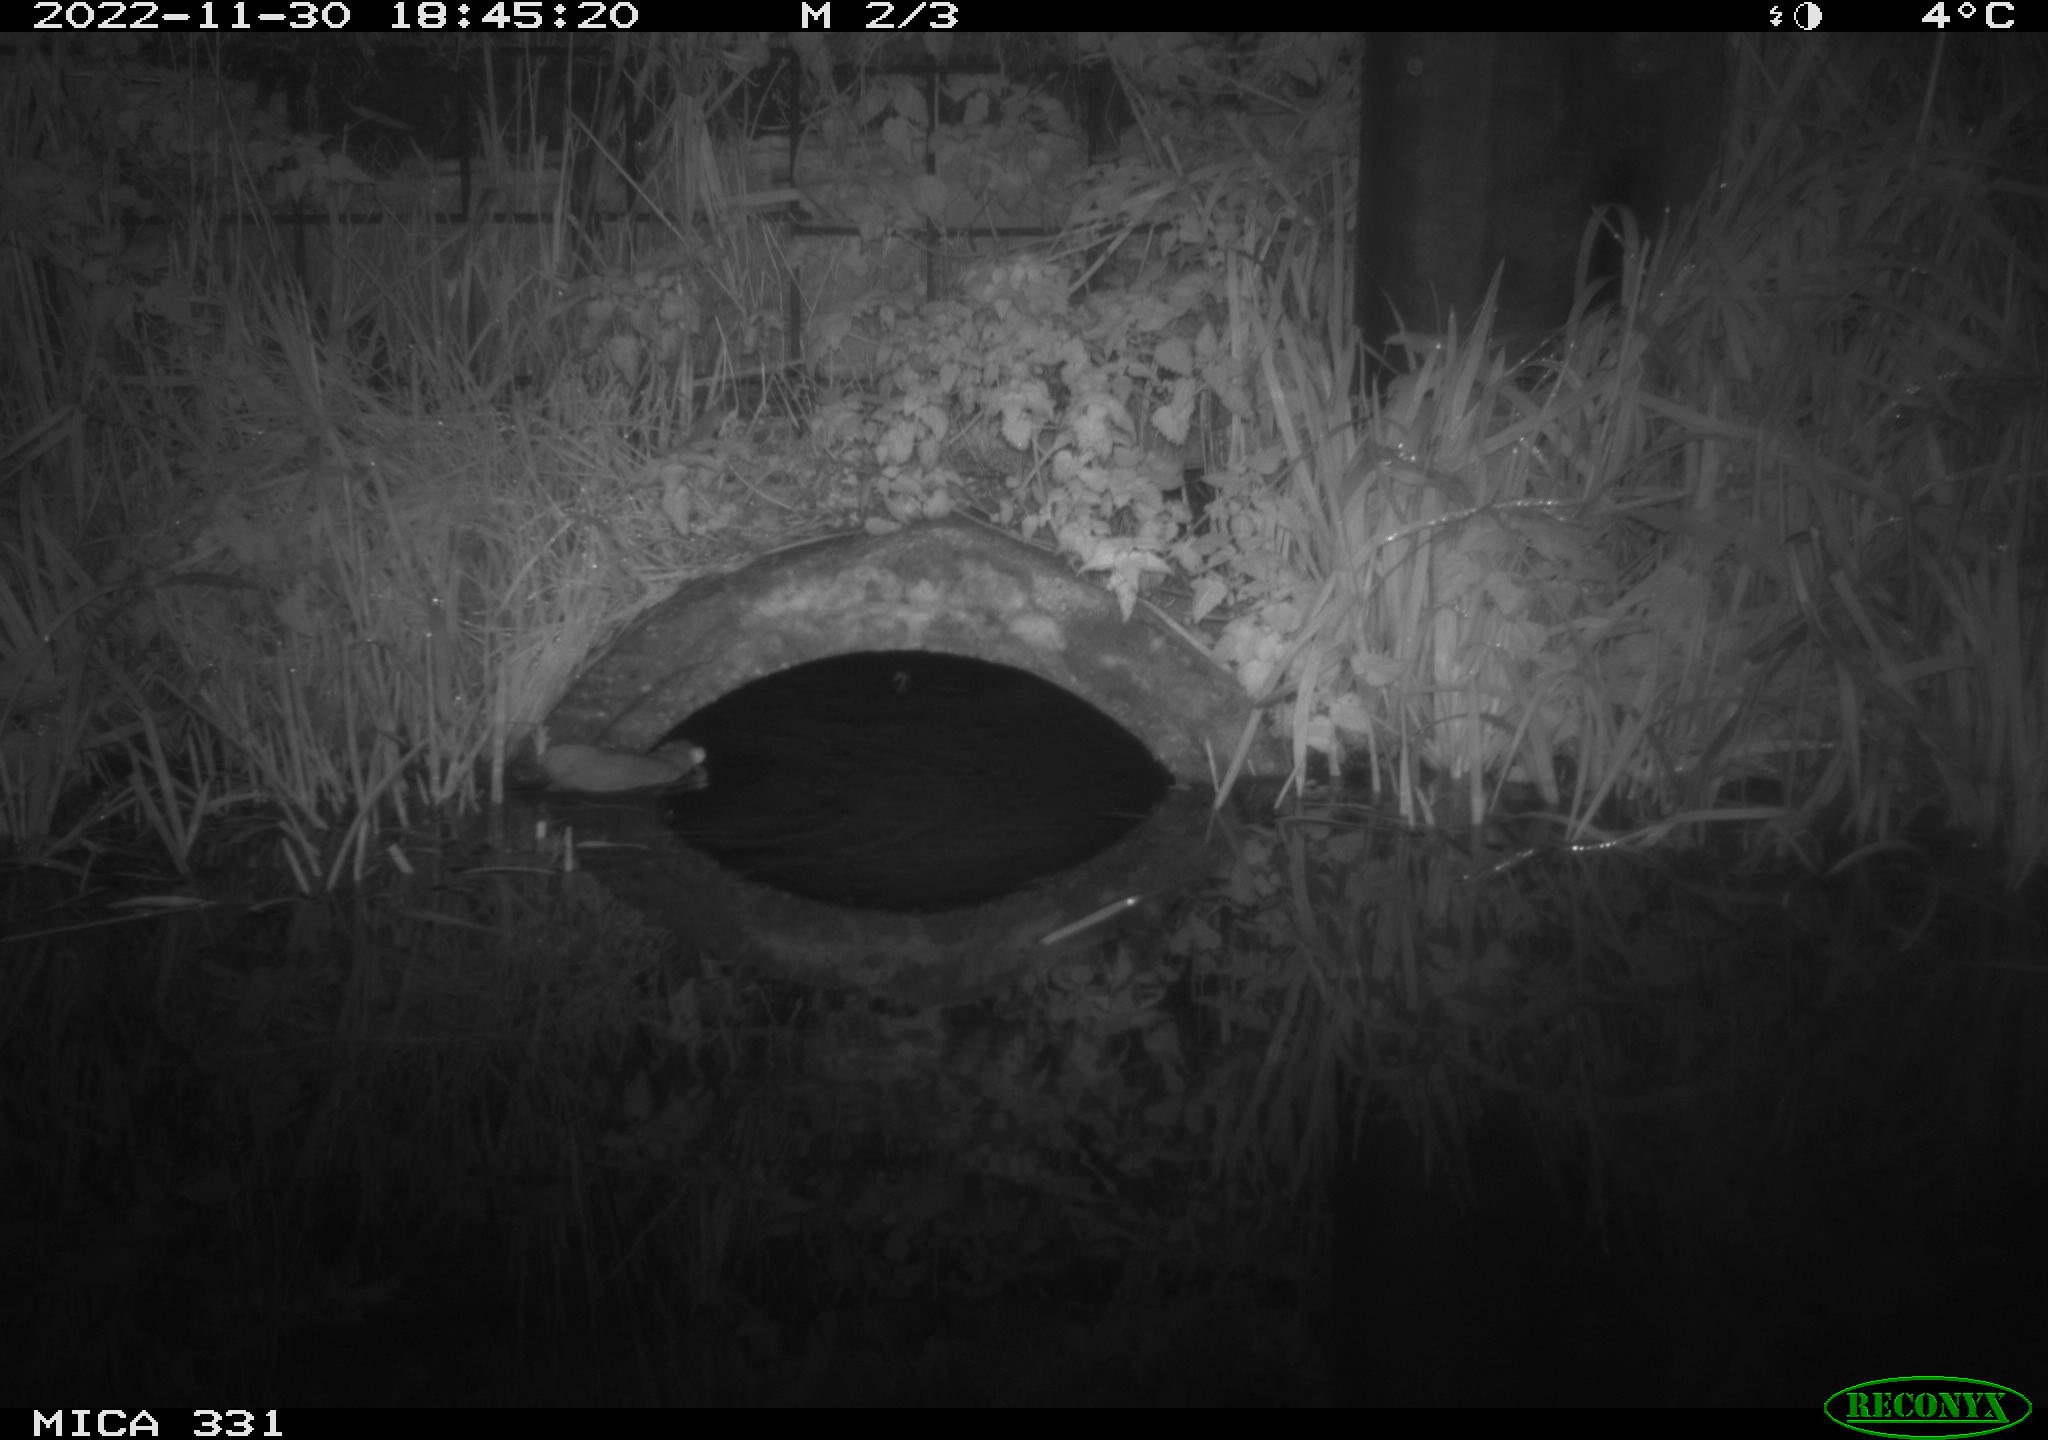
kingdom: Animalia
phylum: Chordata
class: Mammalia
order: Rodentia
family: Muridae
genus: Rattus
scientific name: Rattus norvegicus
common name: Brown rat
